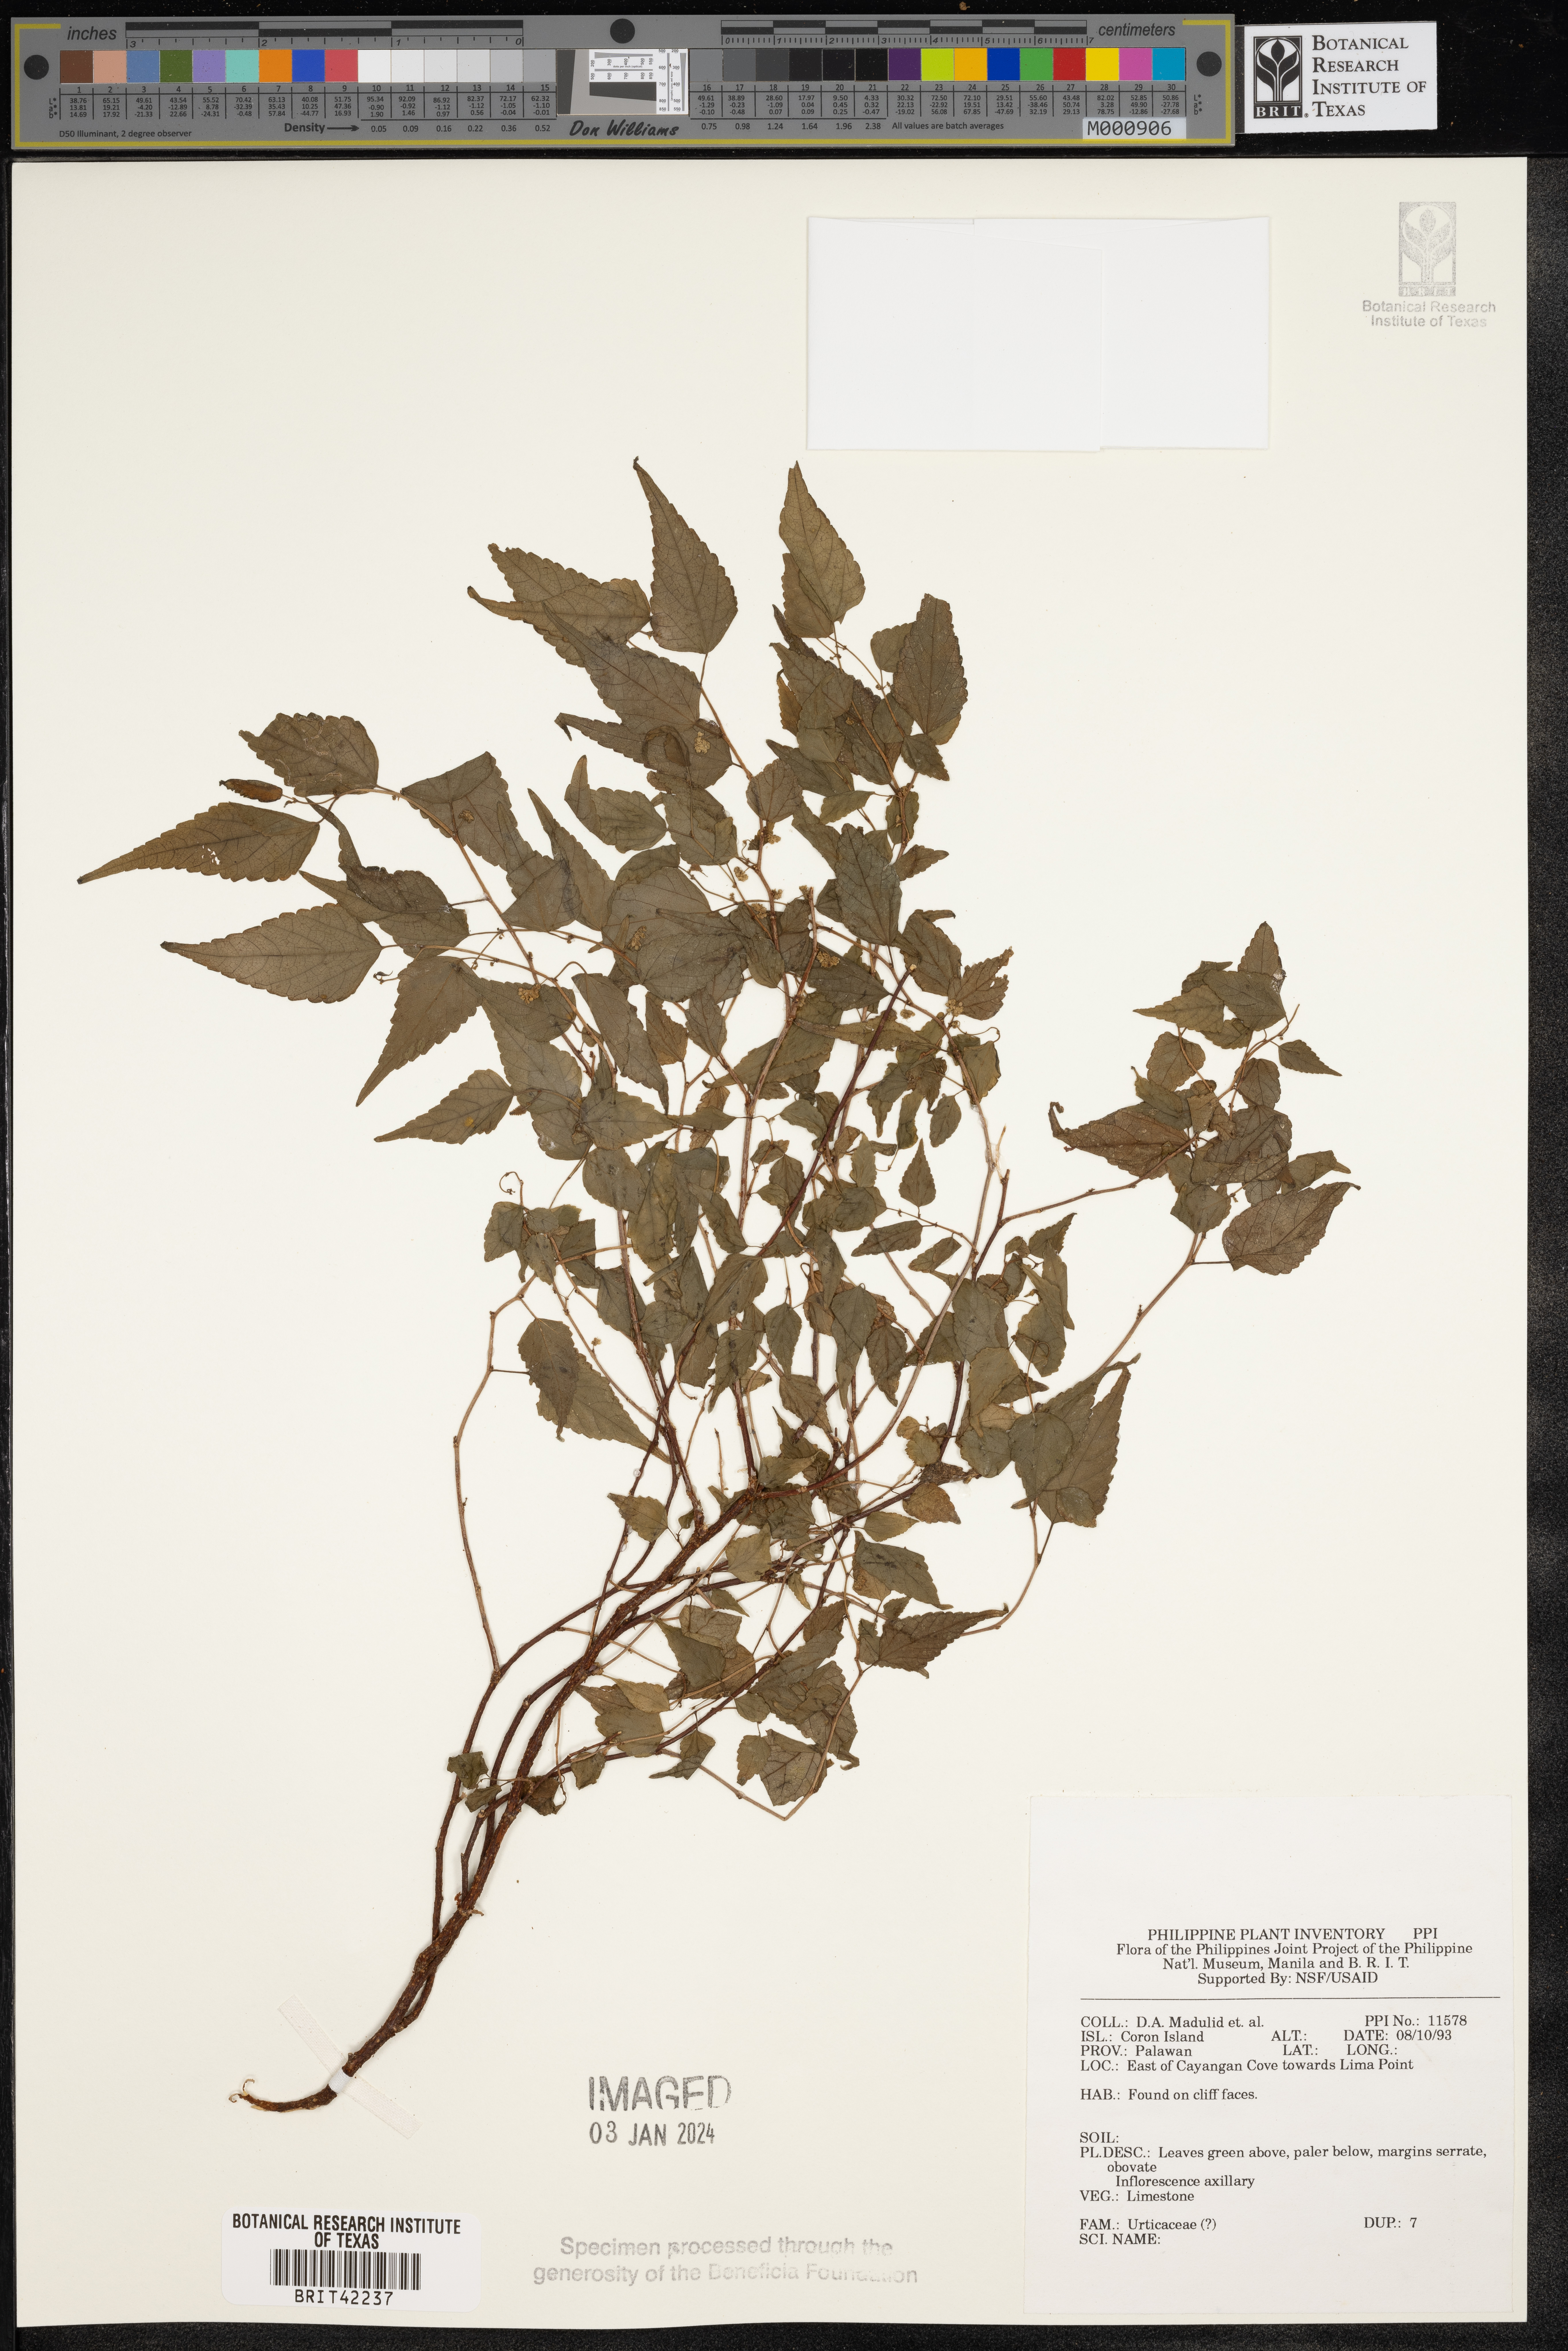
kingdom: Plantae
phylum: Tracheophyta
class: Magnoliopsida
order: Rosales
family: Urticaceae
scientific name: Urticaceae
